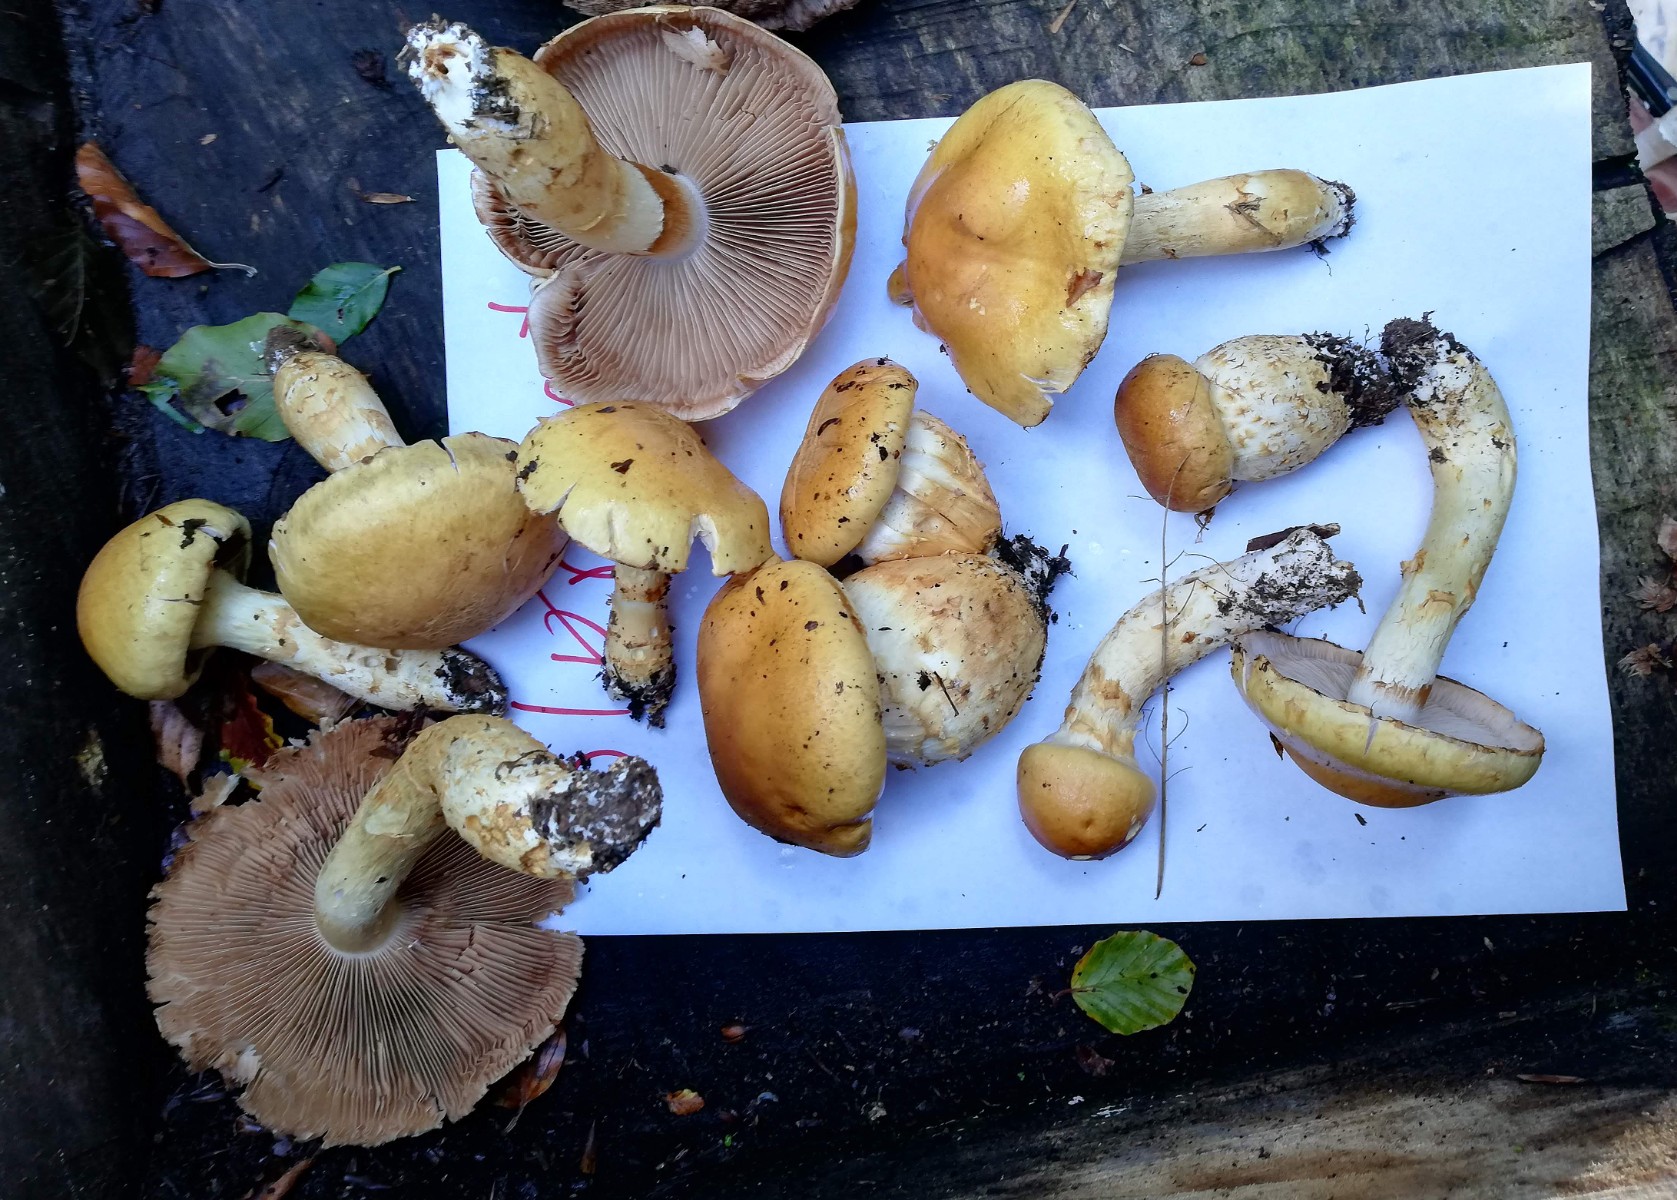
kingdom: Fungi
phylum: Basidiomycota
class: Agaricomycetes
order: Agaricales
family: Cortinariaceae
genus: Phlegmacium
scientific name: Phlegmacium triumphans
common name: gulbæltet slørhat
